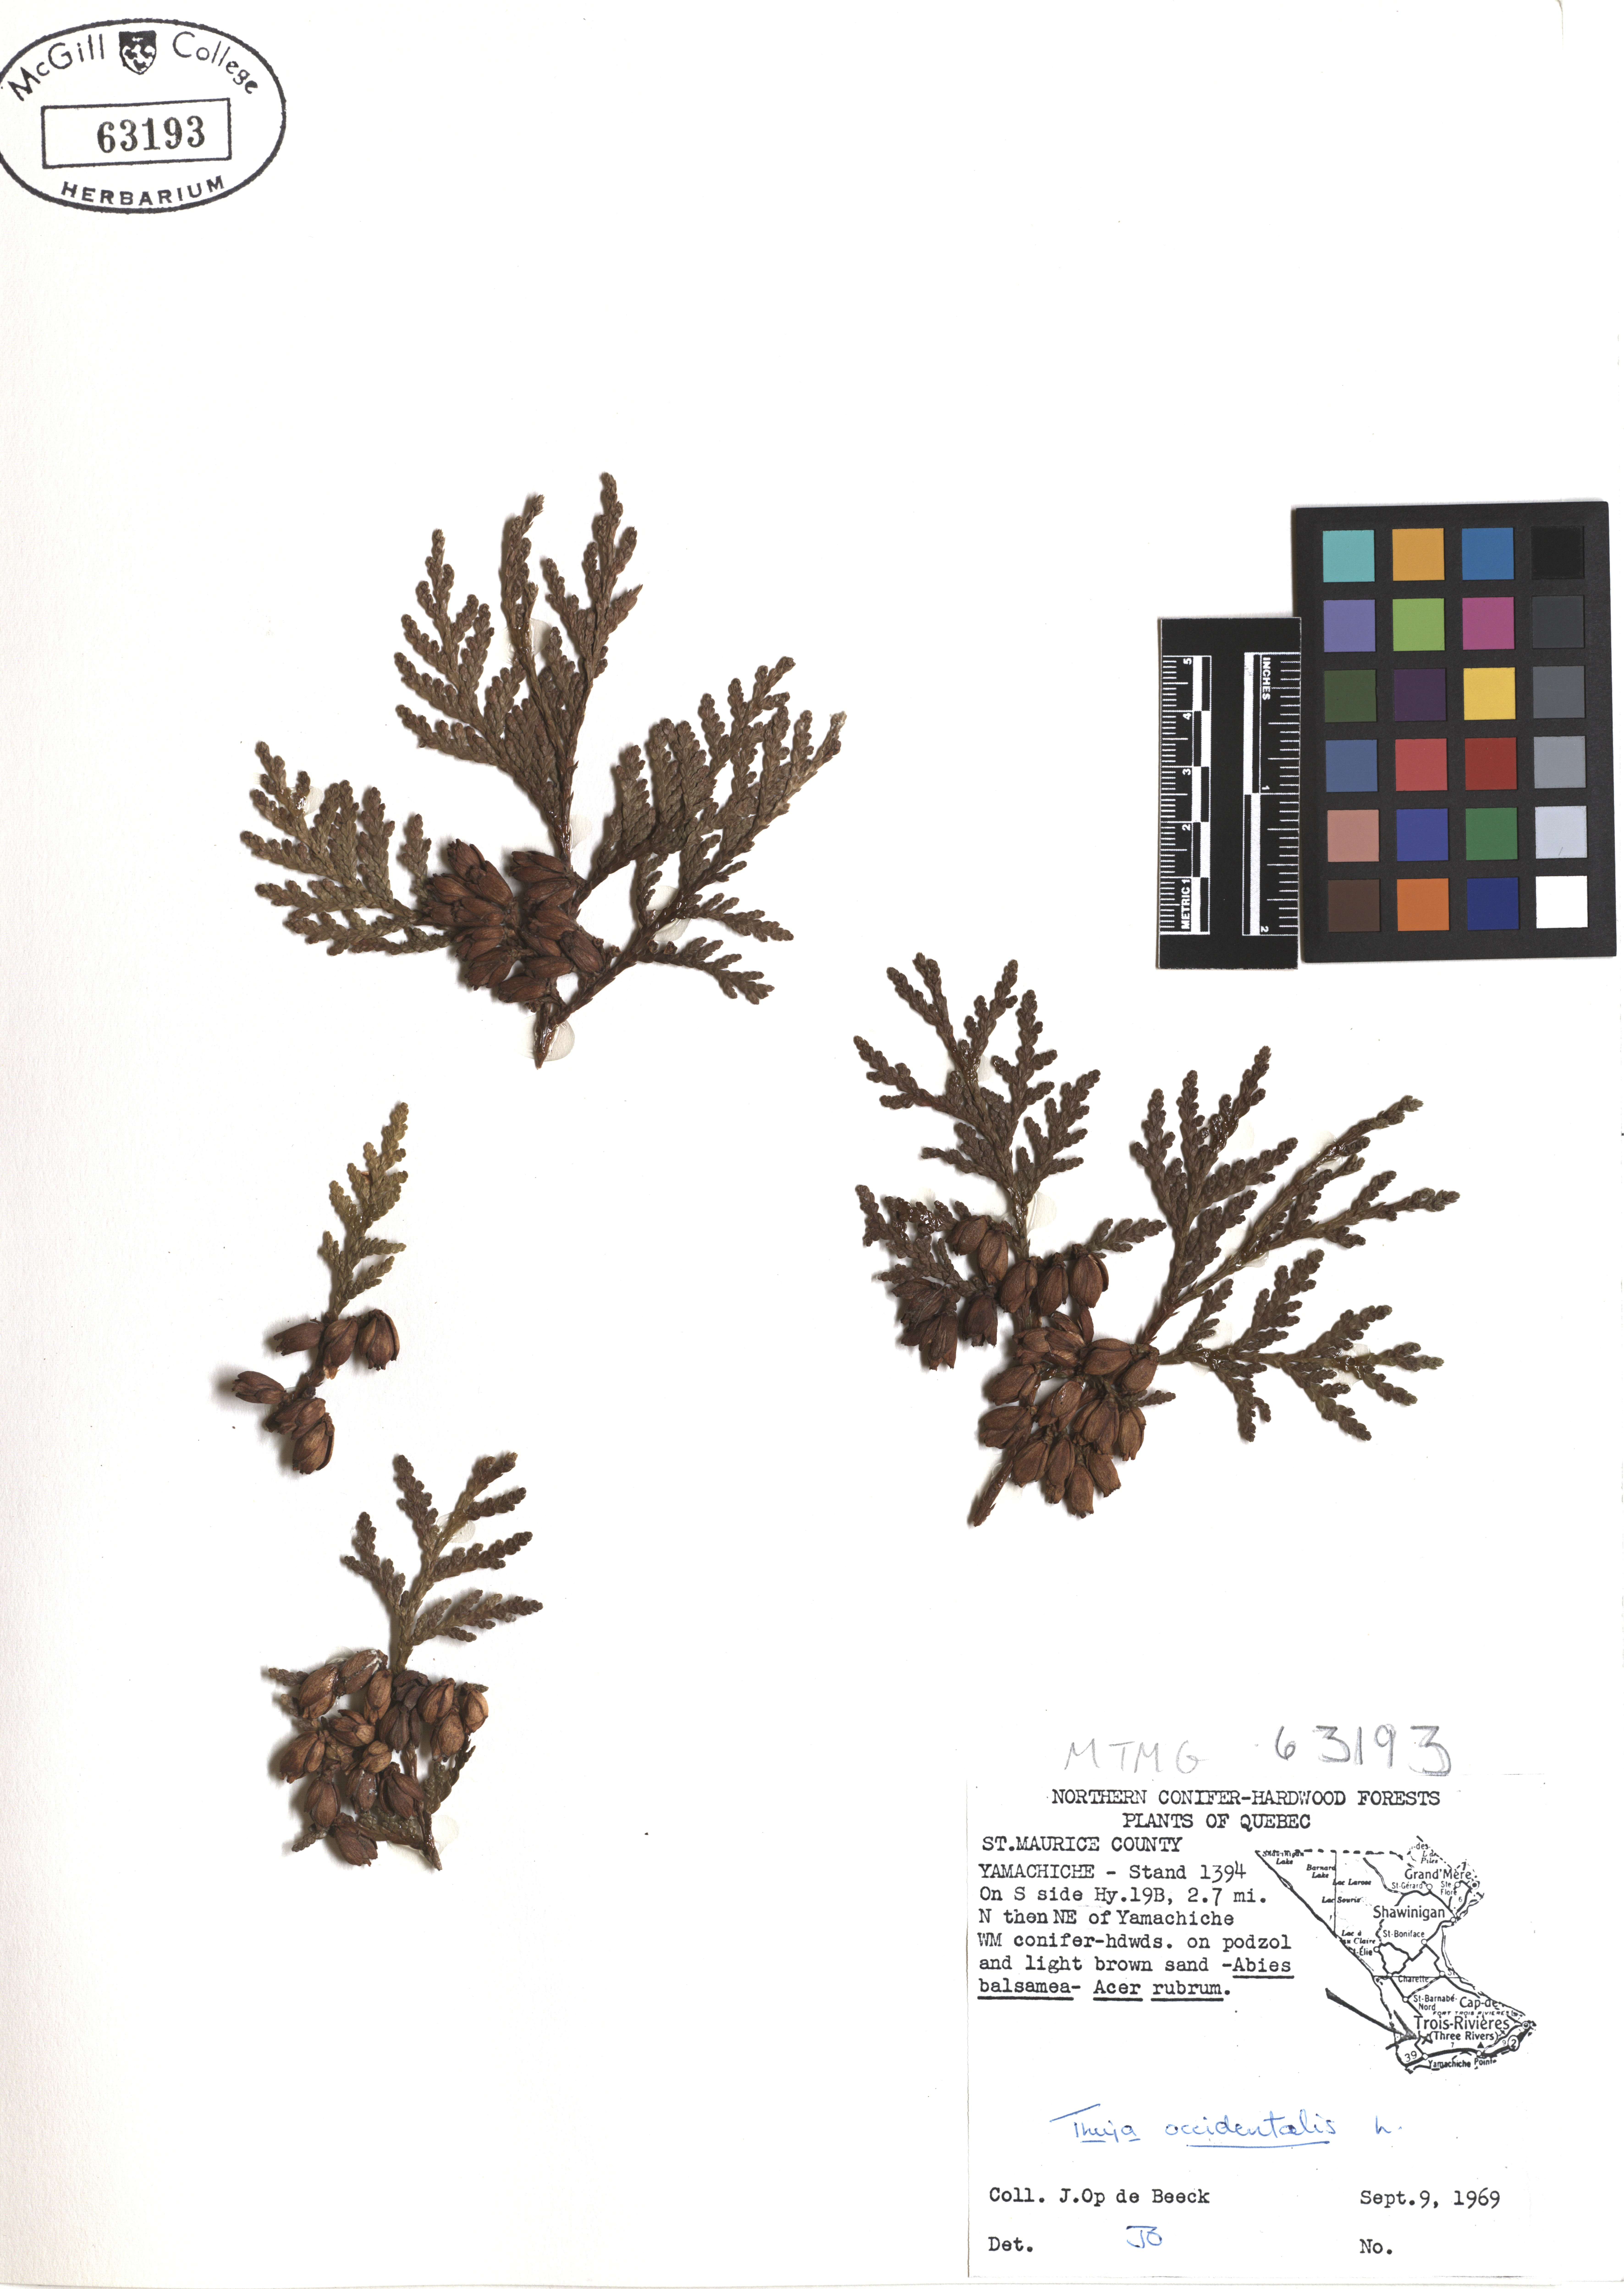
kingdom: Plantae
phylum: Tracheophyta
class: Pinopsida
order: Pinales
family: Cupressaceae
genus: Thuja
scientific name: Thuja occidentalis
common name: Northern white-cedar
